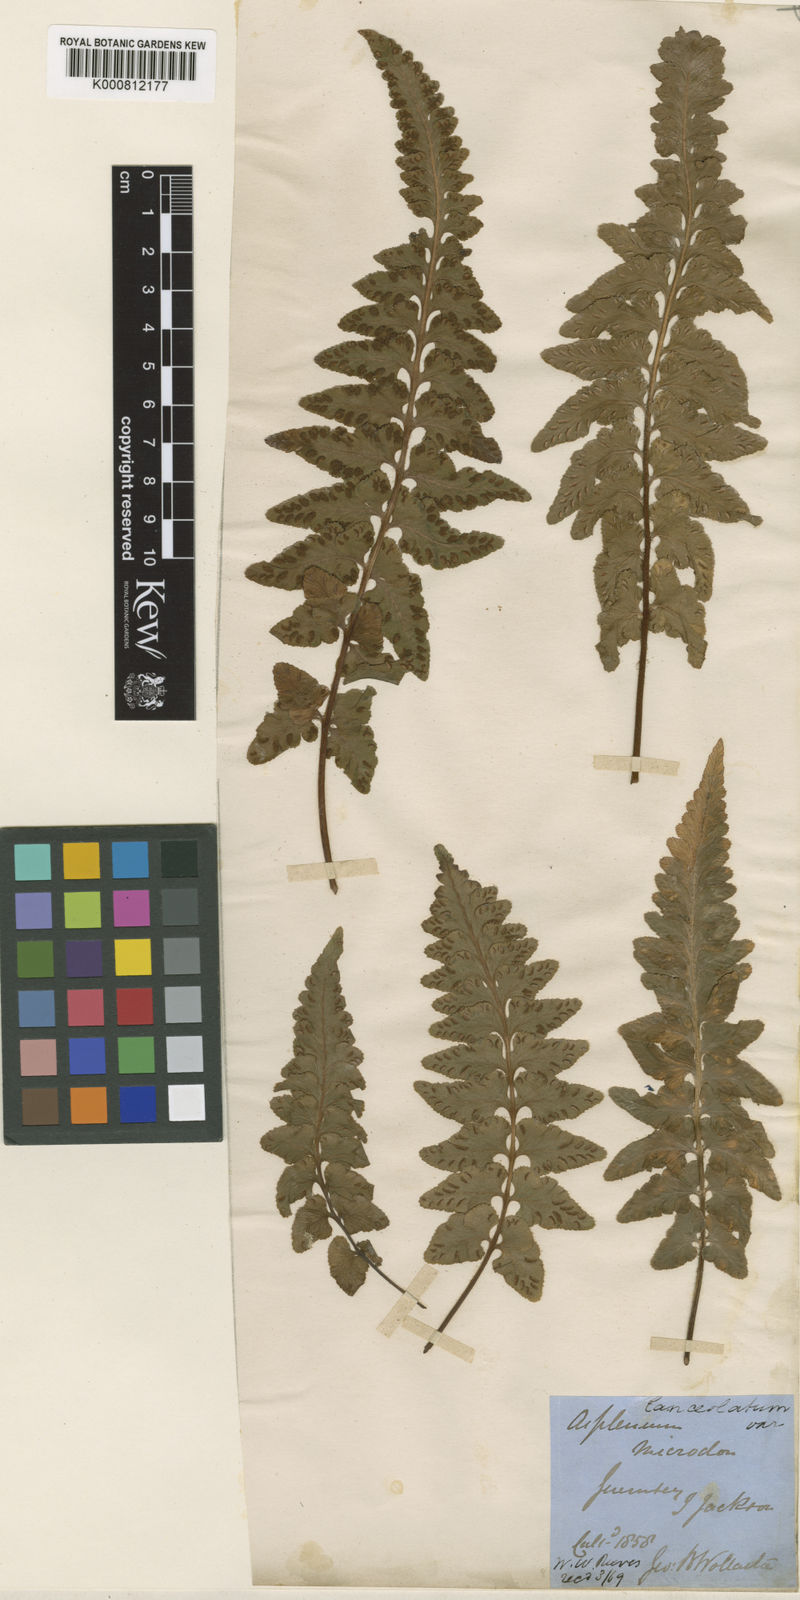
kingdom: Plantae
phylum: Tracheophyta
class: Polypodiopsida
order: Polypodiales
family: Aspleniaceae
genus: Asplenium
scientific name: Asplenium jacksonii
